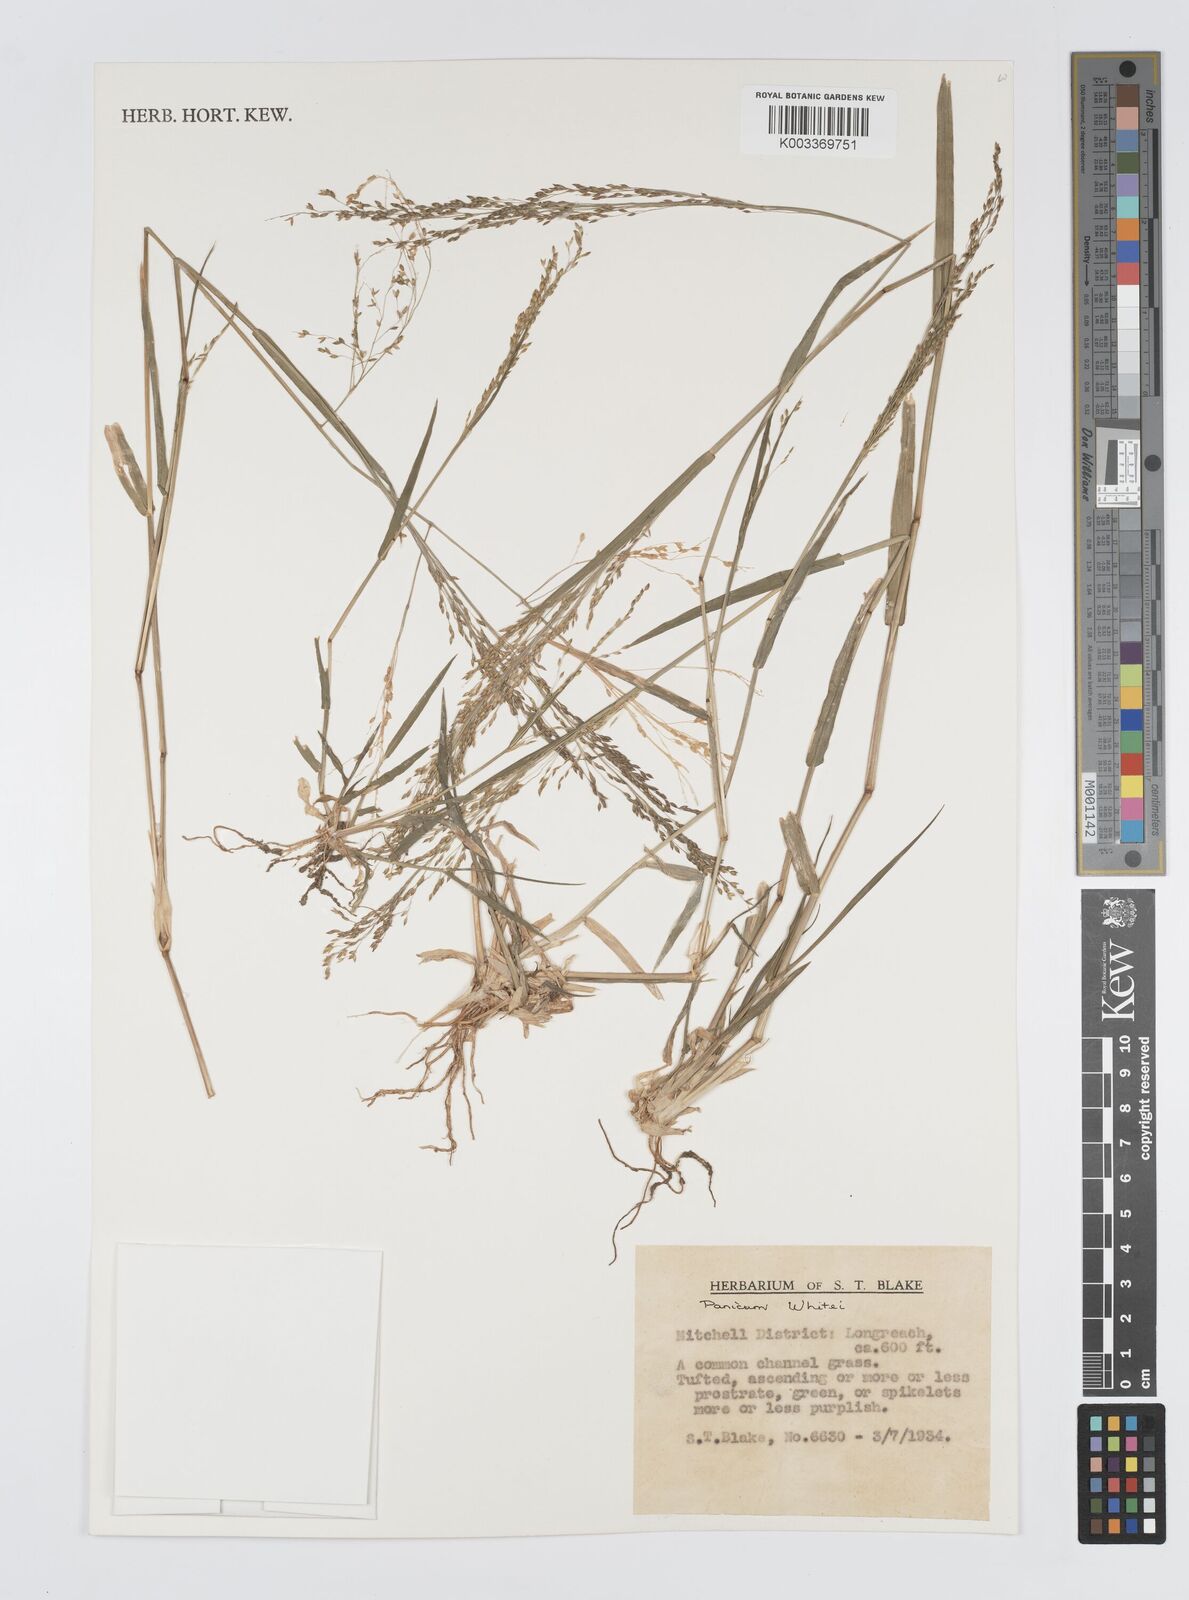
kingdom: Plantae
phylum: Tracheophyta
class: Liliopsida
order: Poales
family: Poaceae
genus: Panicum
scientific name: Panicum laevinode
